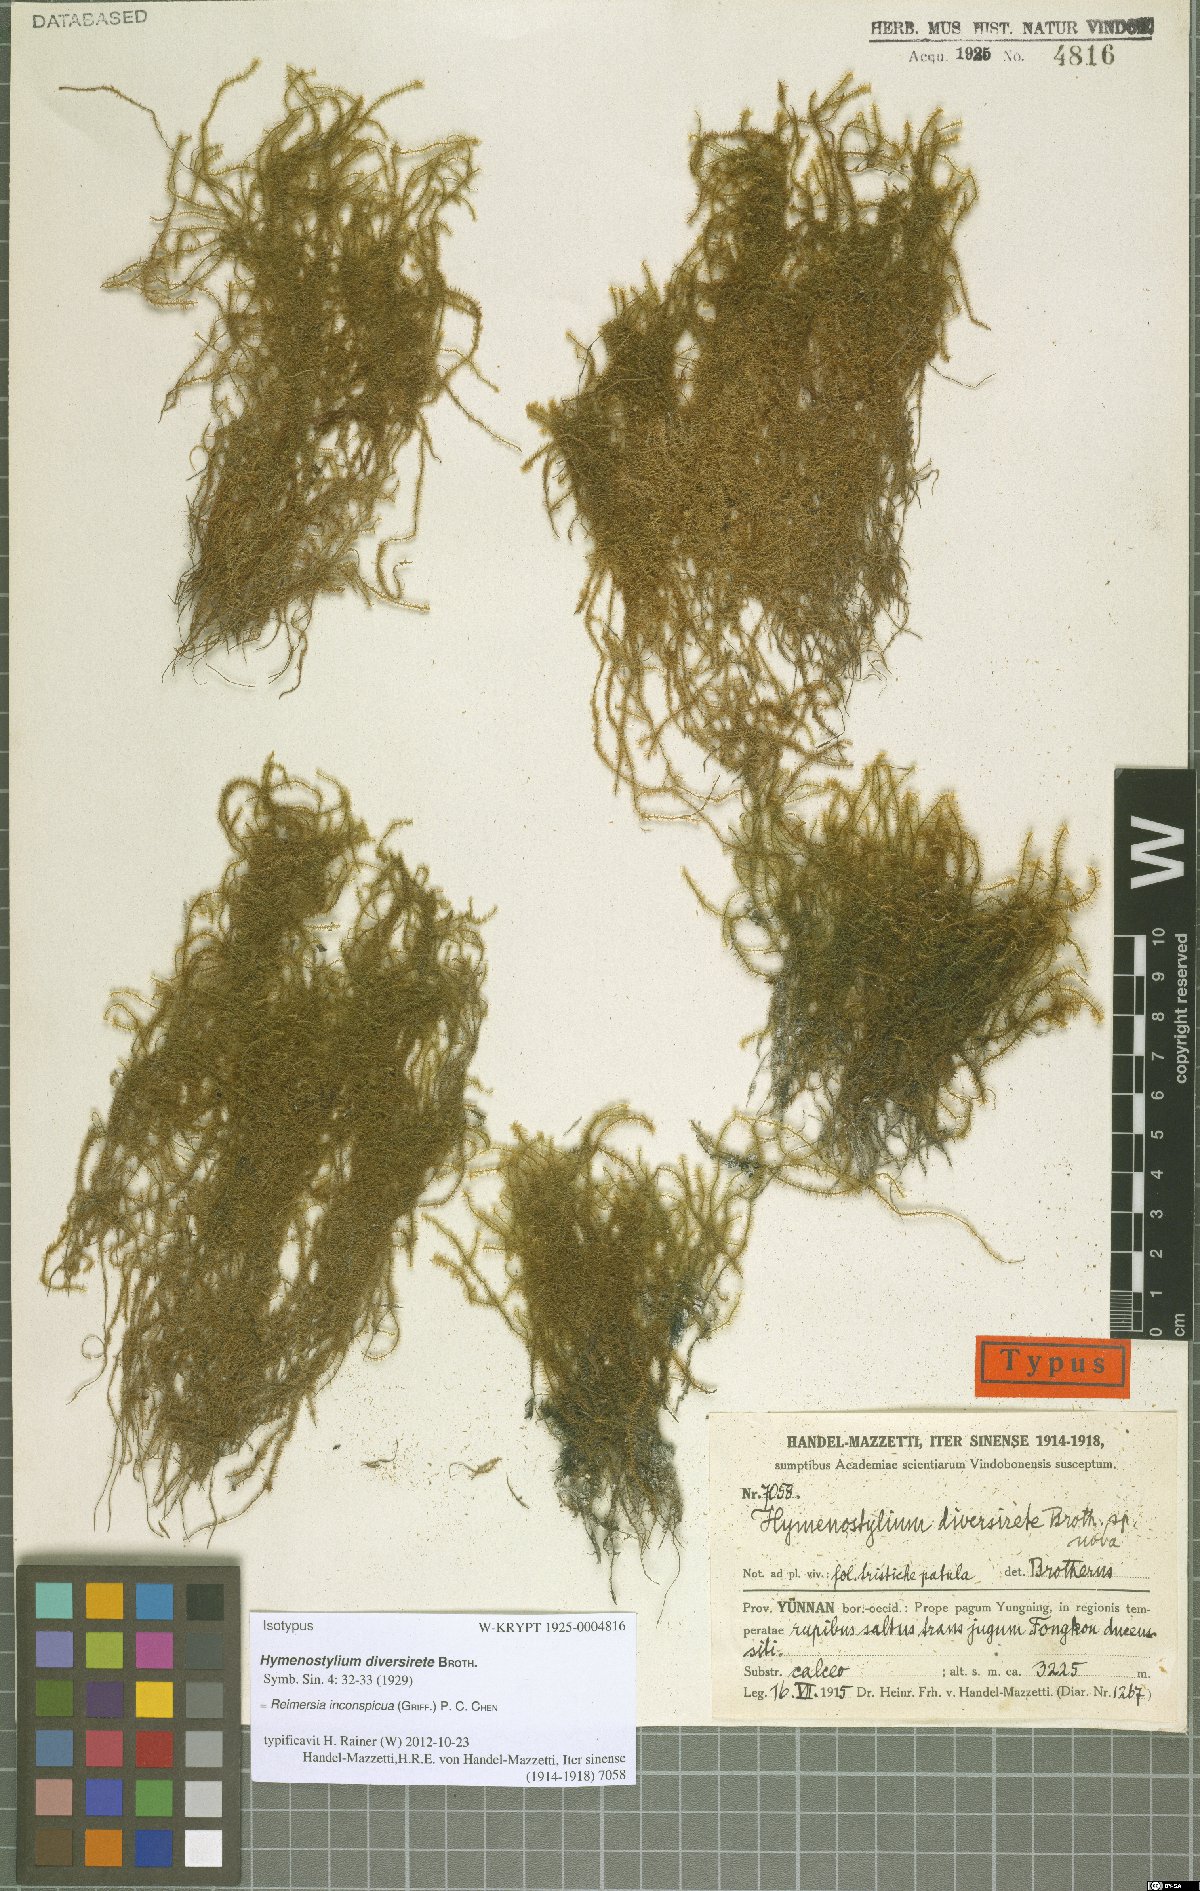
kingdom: Plantae
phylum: Bryophyta
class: Bryopsida
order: Pottiales
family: Pottiaceae
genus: Reimersia
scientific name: Reimersia diversiretis
